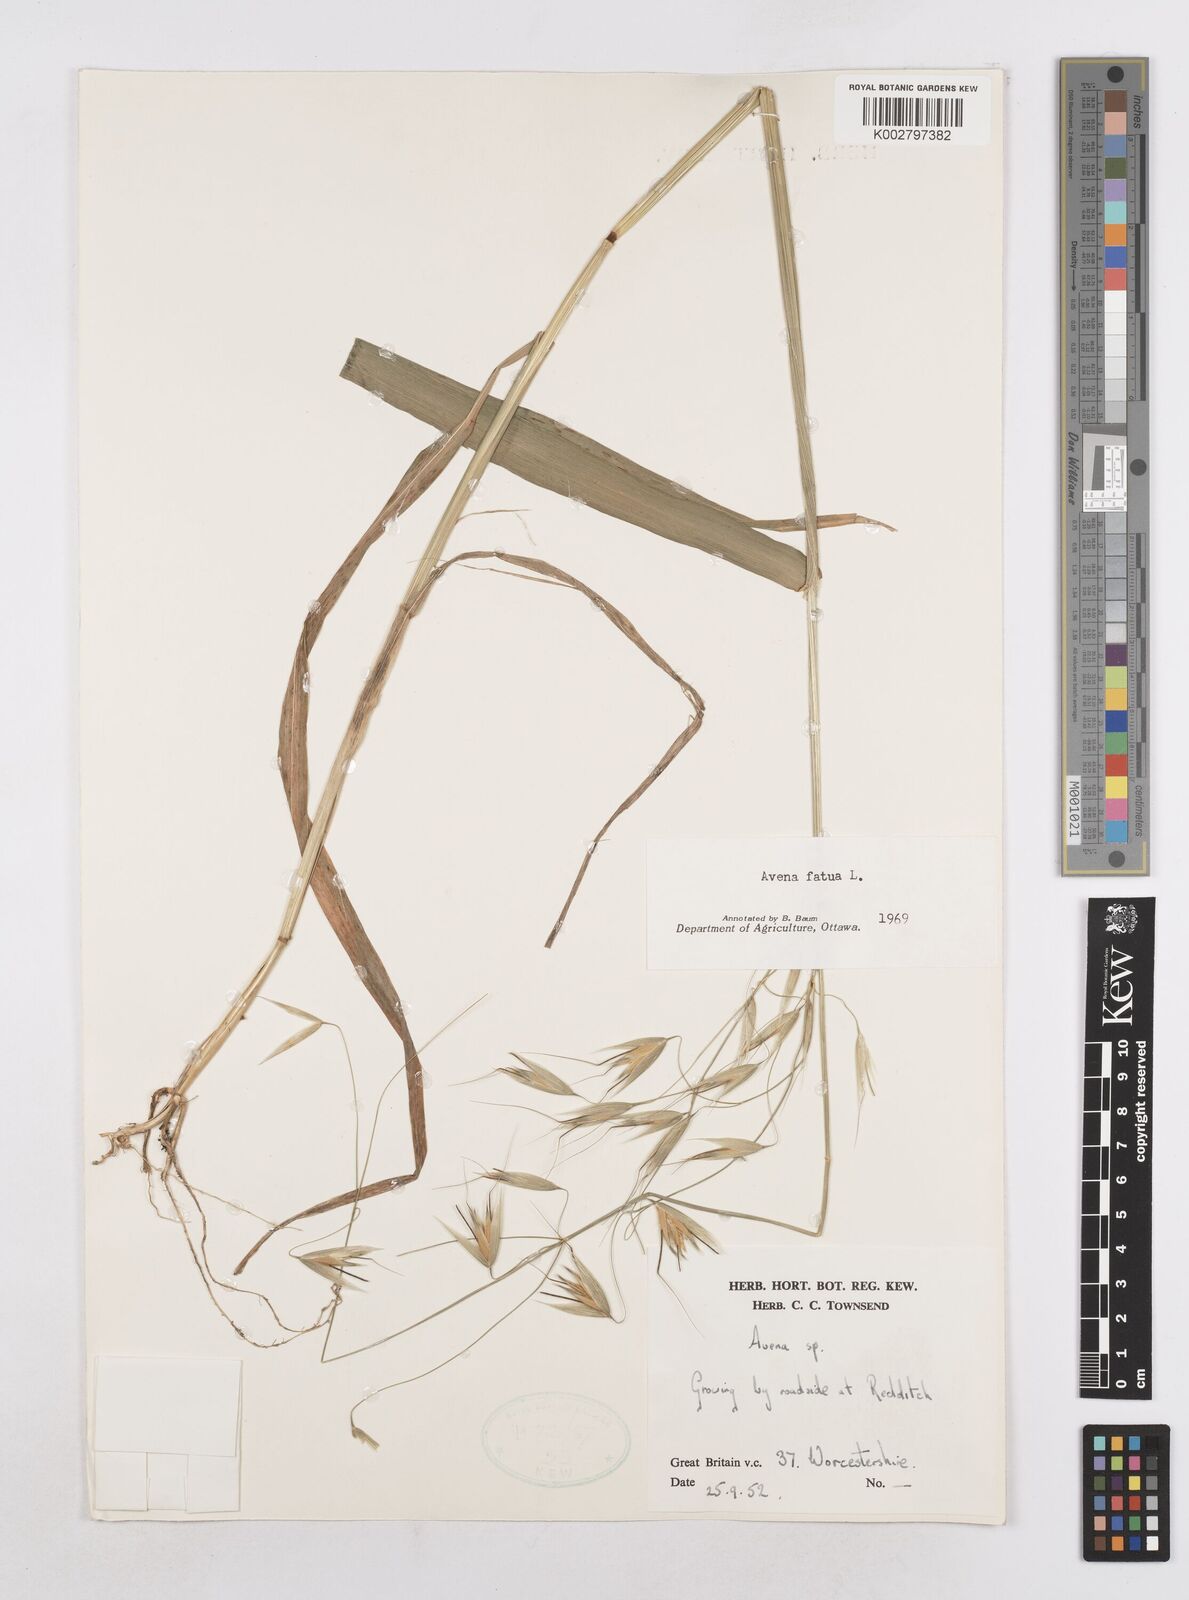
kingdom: Plantae
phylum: Tracheophyta
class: Liliopsida
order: Poales
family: Poaceae
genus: Avena
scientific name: Avena fatua
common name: Wild oat
